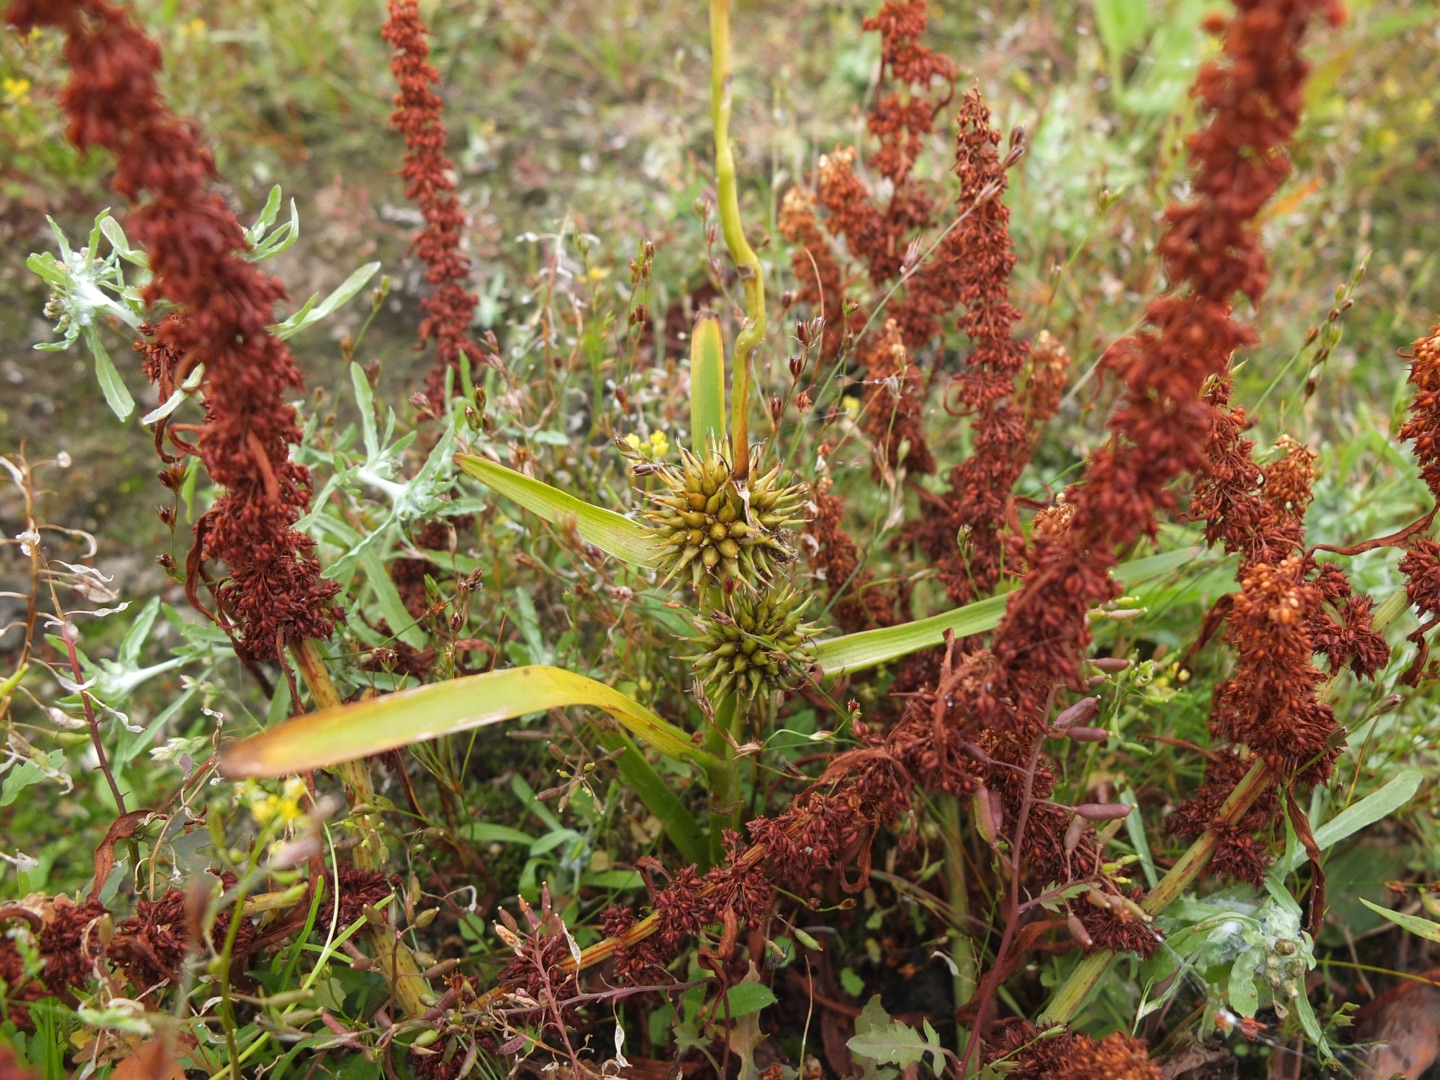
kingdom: Plantae
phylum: Tracheophyta
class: Liliopsida
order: Poales
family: Typhaceae
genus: Sparganium
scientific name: Sparganium erectum
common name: Ten-pindsvineknop
